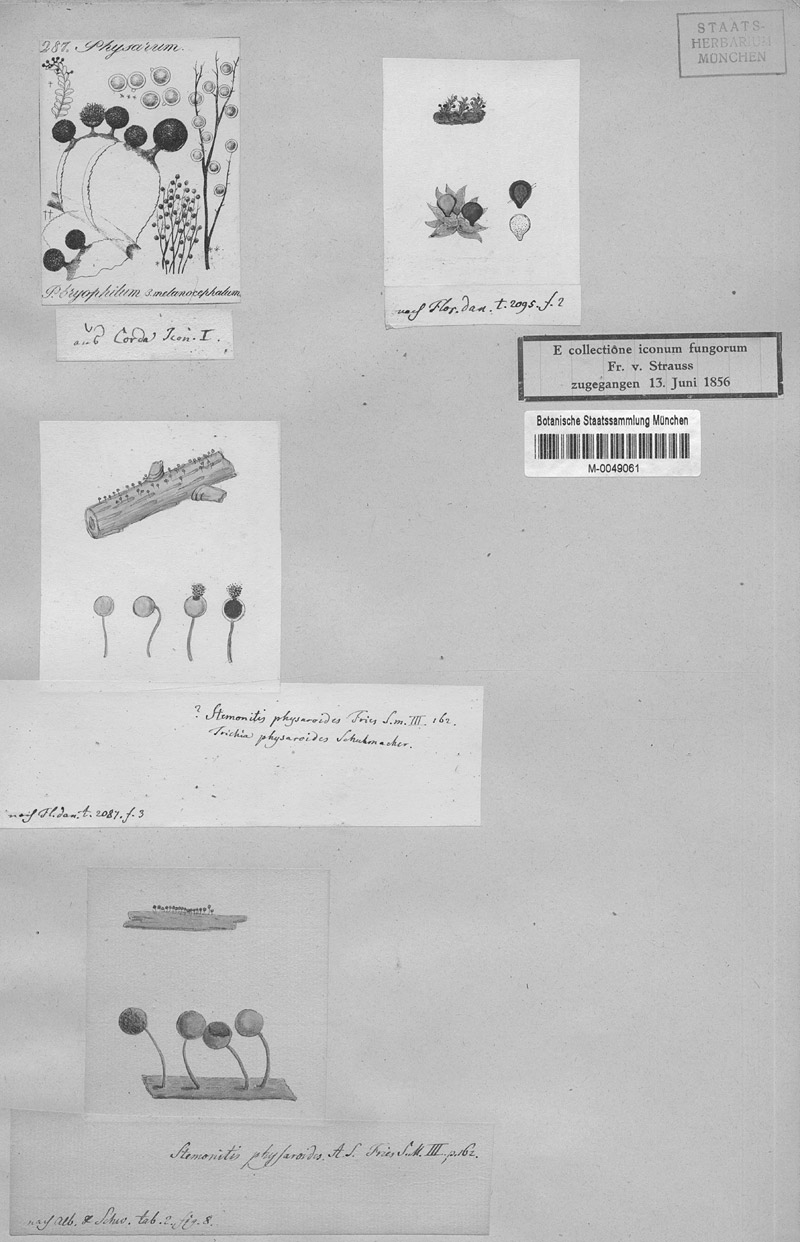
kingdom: Protozoa
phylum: Mycetozoa
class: Myxomycetes
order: Stemonitidales
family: Stemonitidaceae
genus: Lamproderma
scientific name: Lamproderma columbinum
